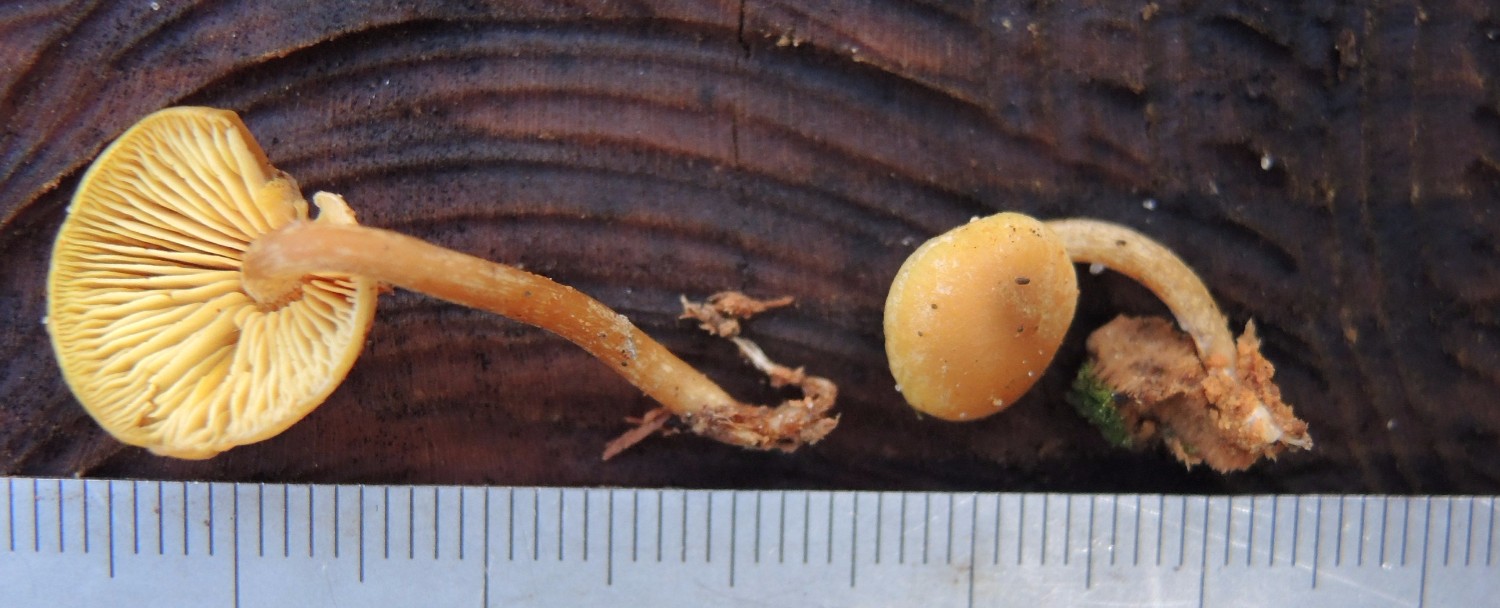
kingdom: Fungi
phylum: Basidiomycota
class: Agaricomycetes
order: Agaricales
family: Callistosporiaceae
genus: Callistosporium
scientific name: Callistosporium pinicola
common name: småsporet ravhat
